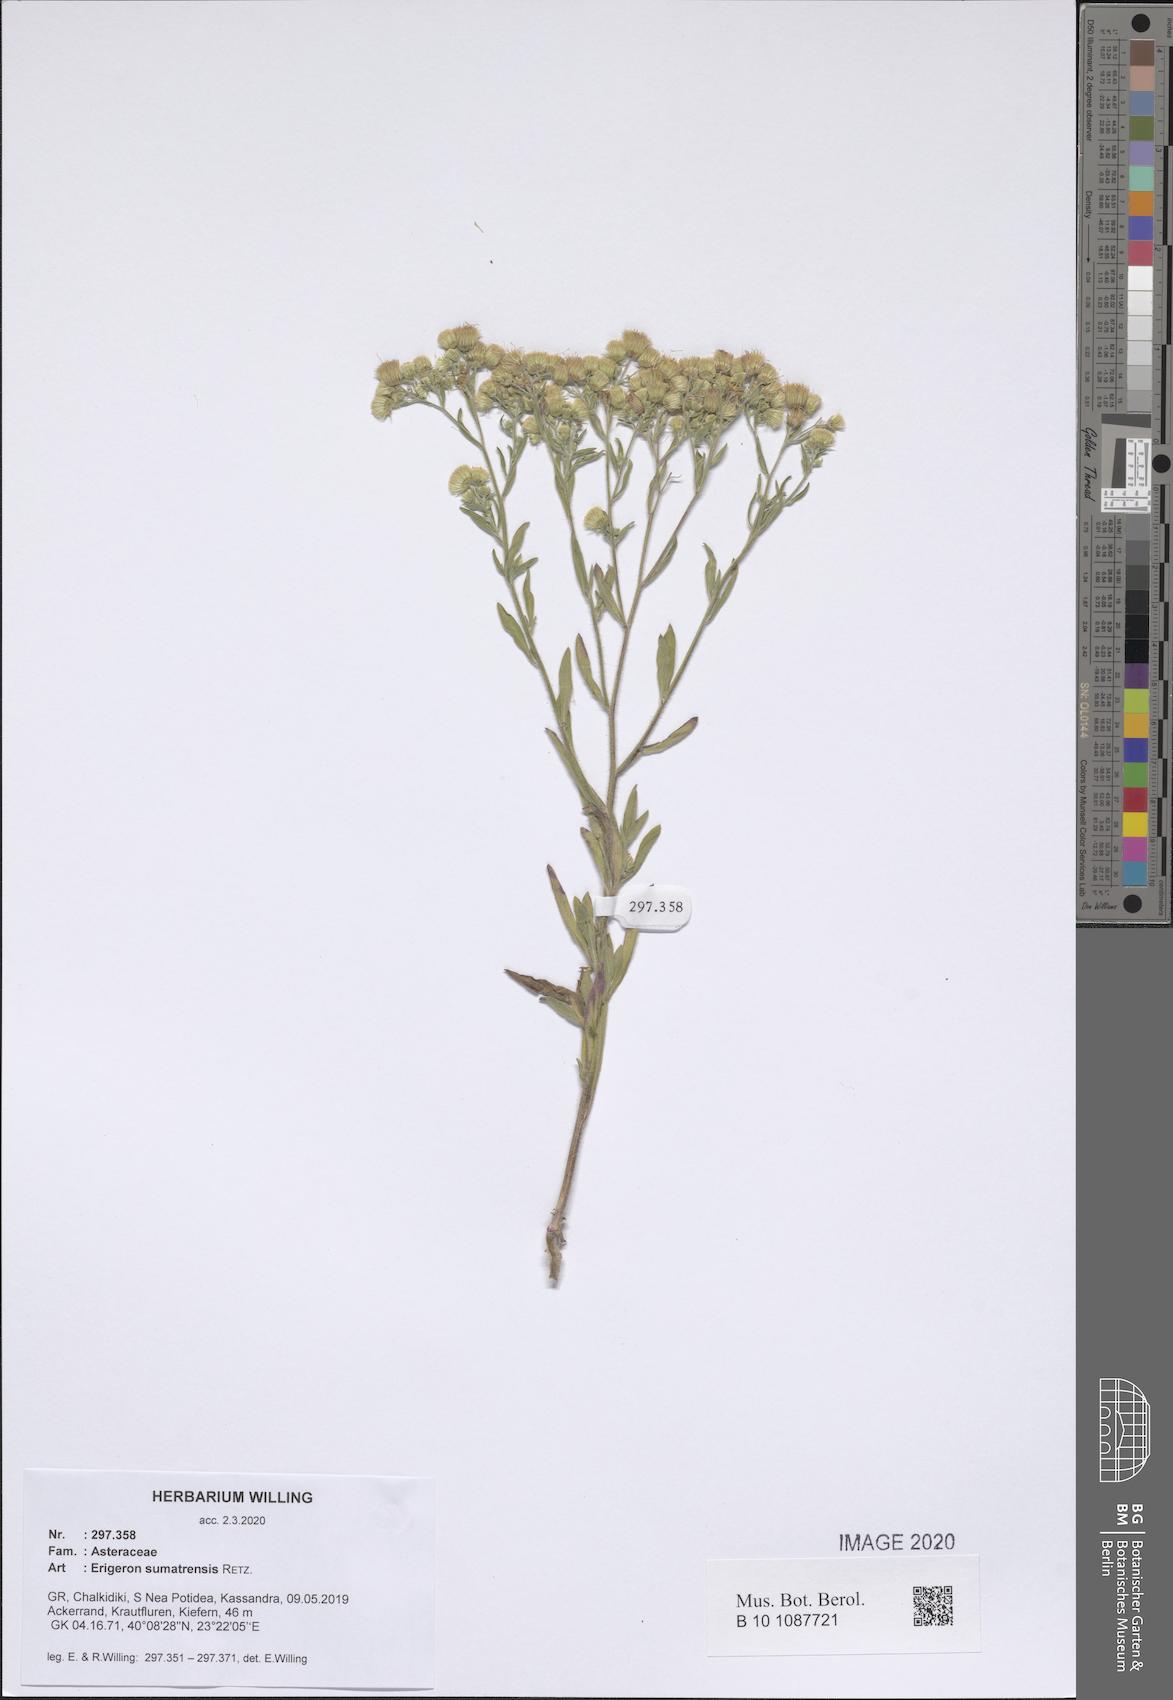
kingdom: Plantae
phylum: Tracheophyta
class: Magnoliopsida
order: Asterales
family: Asteraceae
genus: Erigeron
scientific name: Erigeron sumatrensis
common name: Daisy
